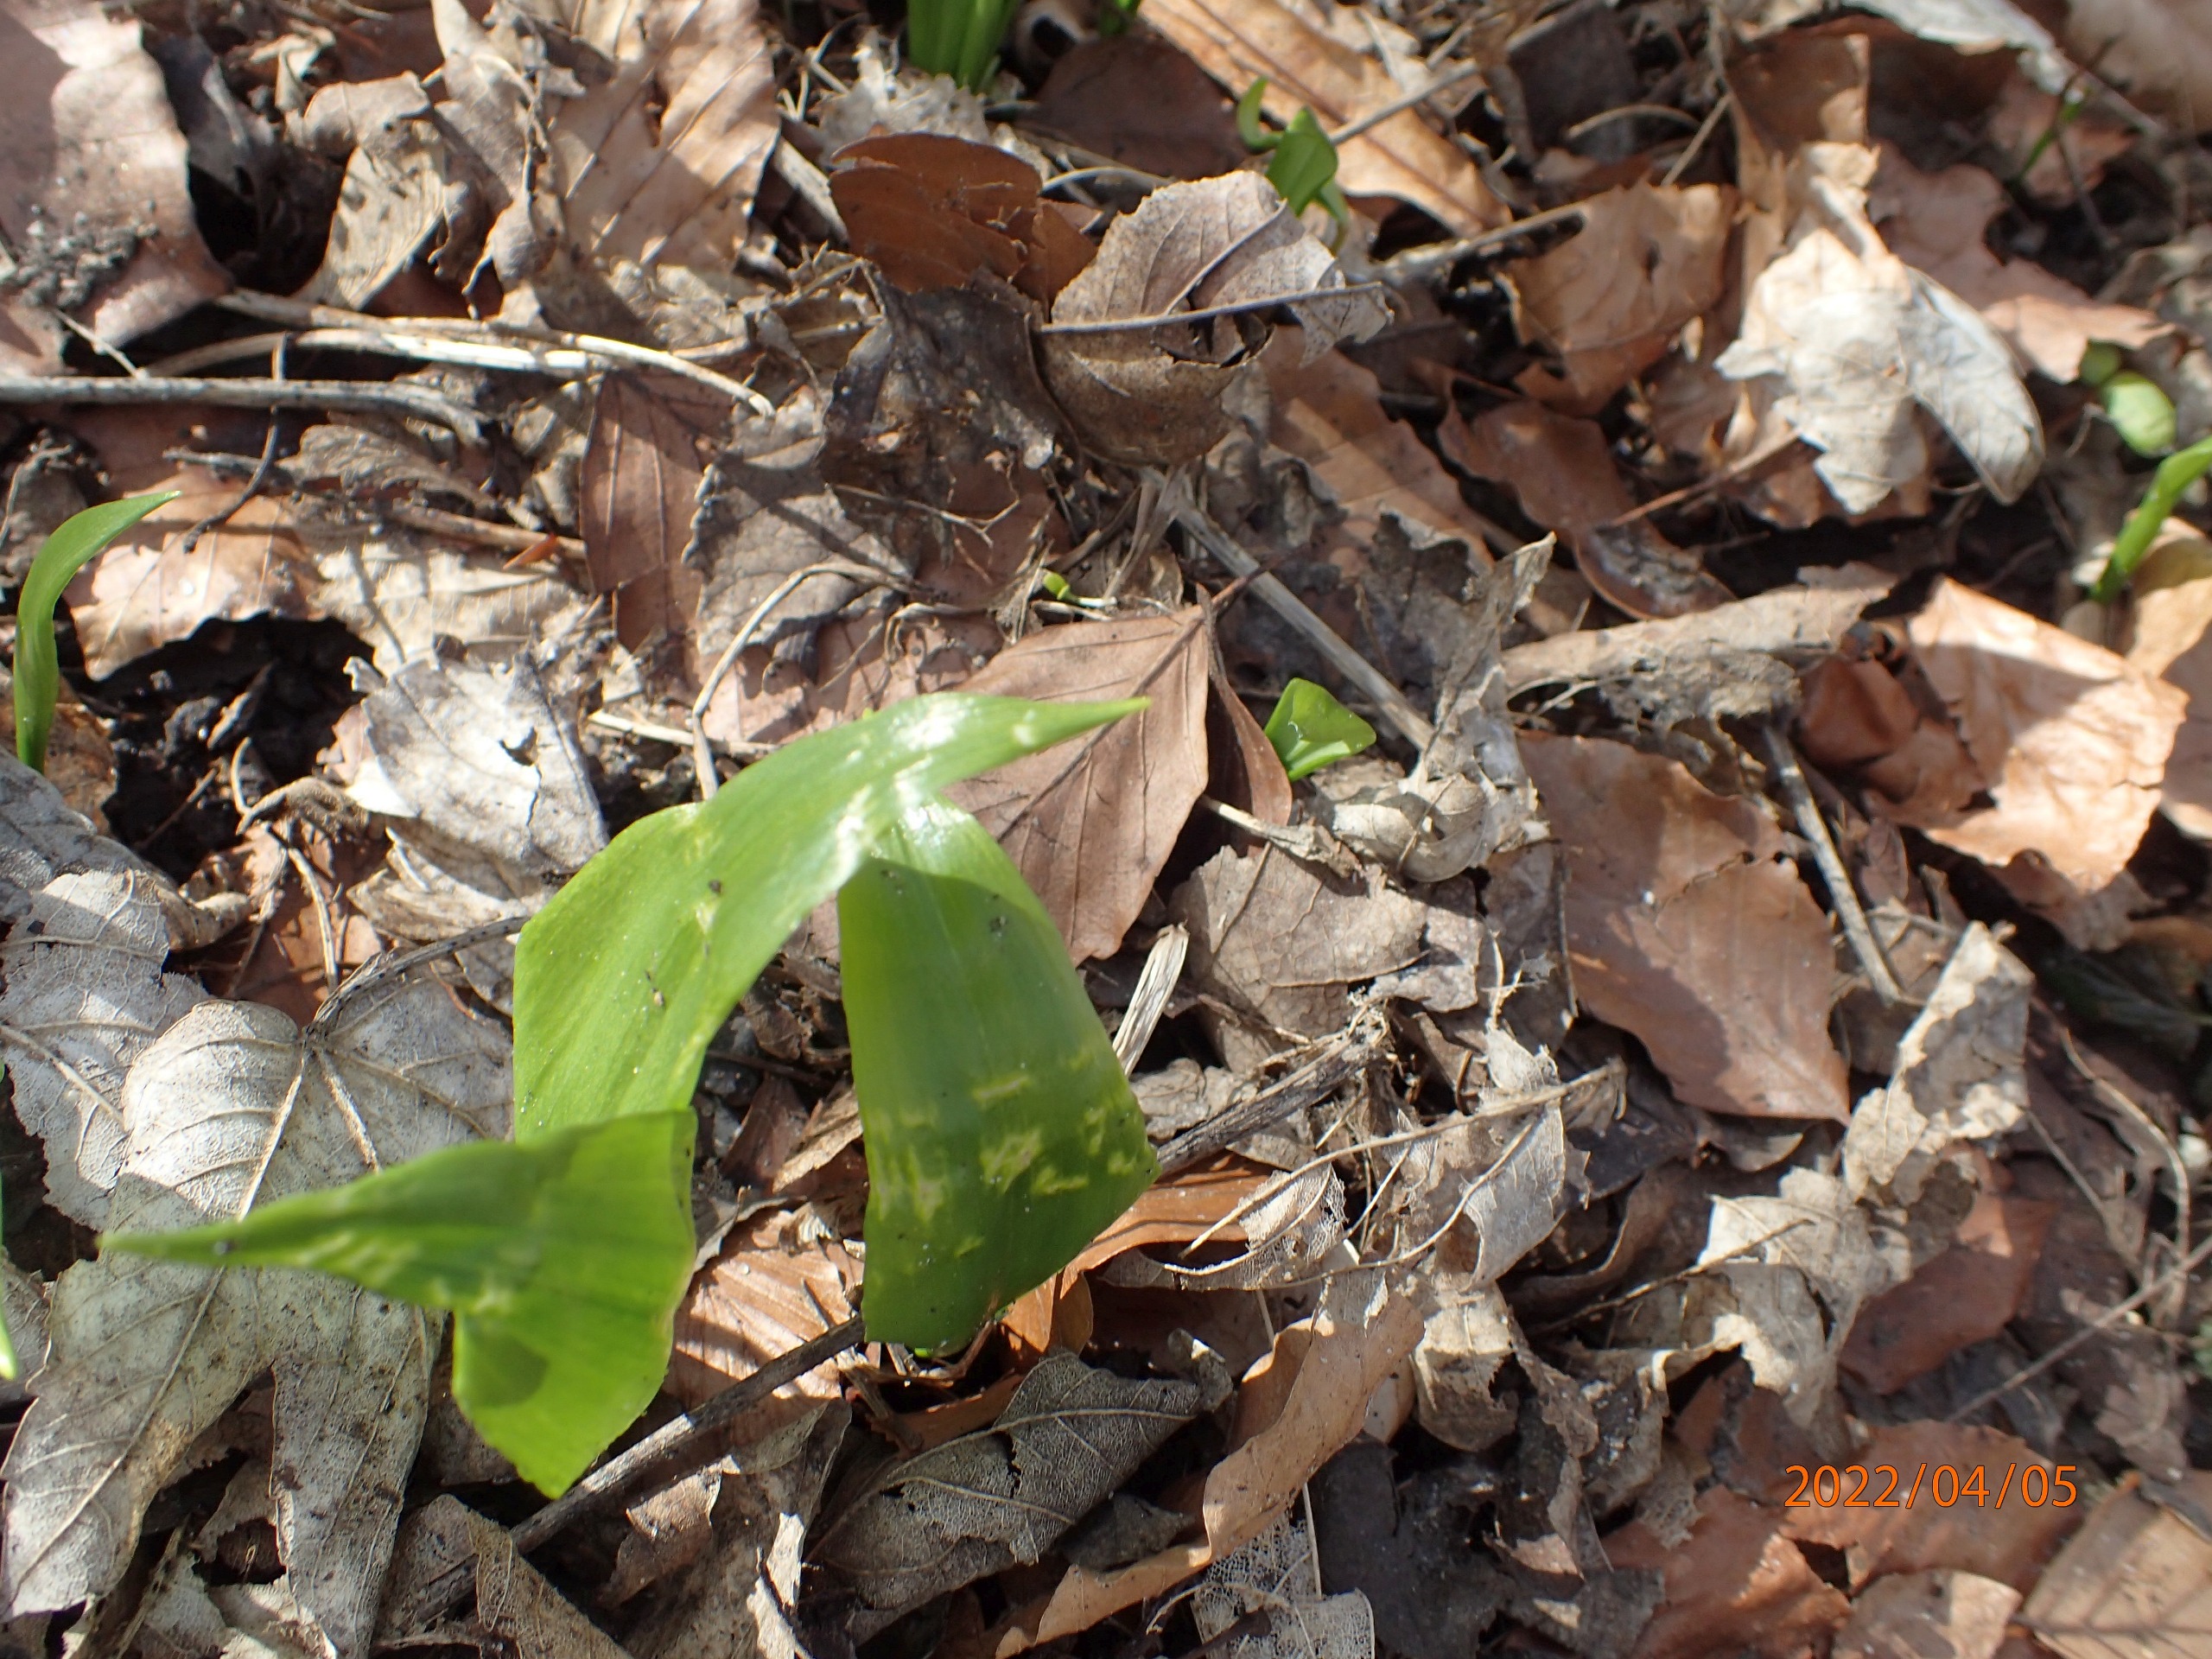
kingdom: Plantae
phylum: Tracheophyta
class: Liliopsida
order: Asparagales
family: Amaryllidaceae
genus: Allium
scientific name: Allium ursinum
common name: Rams-løg
